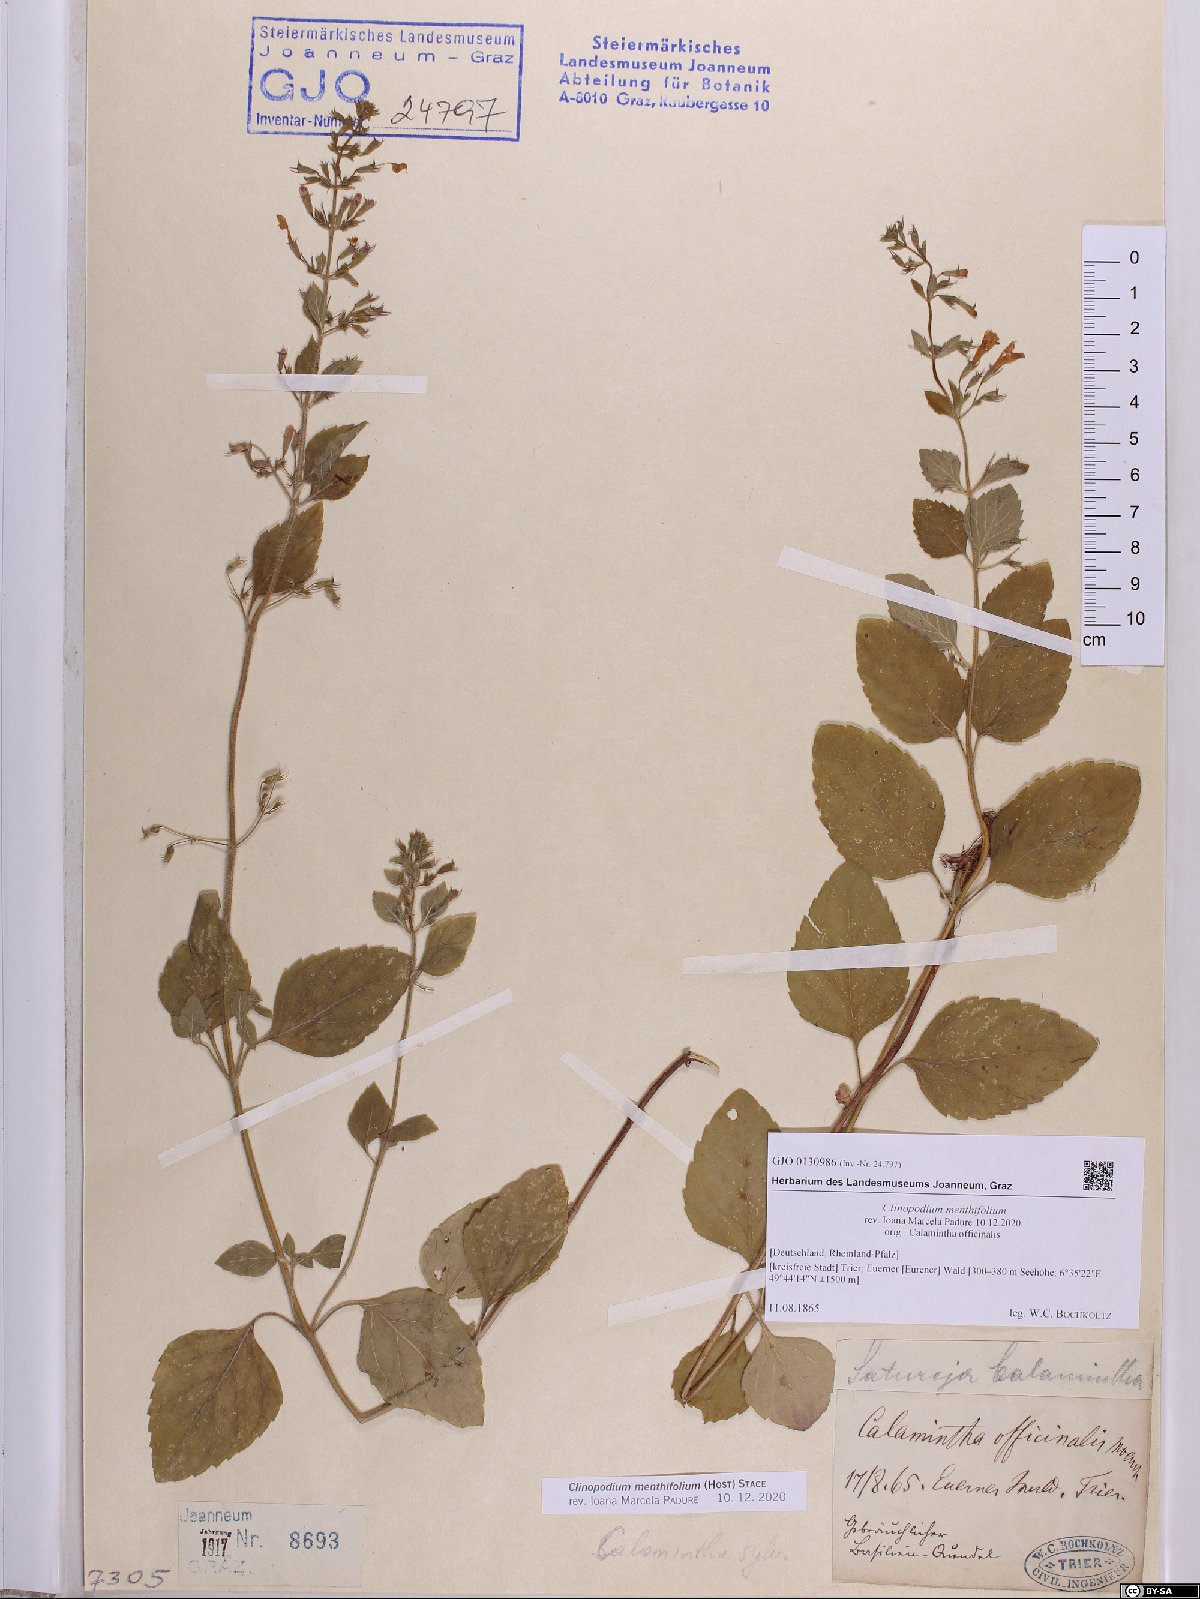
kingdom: Plantae
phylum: Tracheophyta
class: Magnoliopsida
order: Lamiales
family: Lamiaceae
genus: Clinopodium
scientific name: Clinopodium menthifolium
